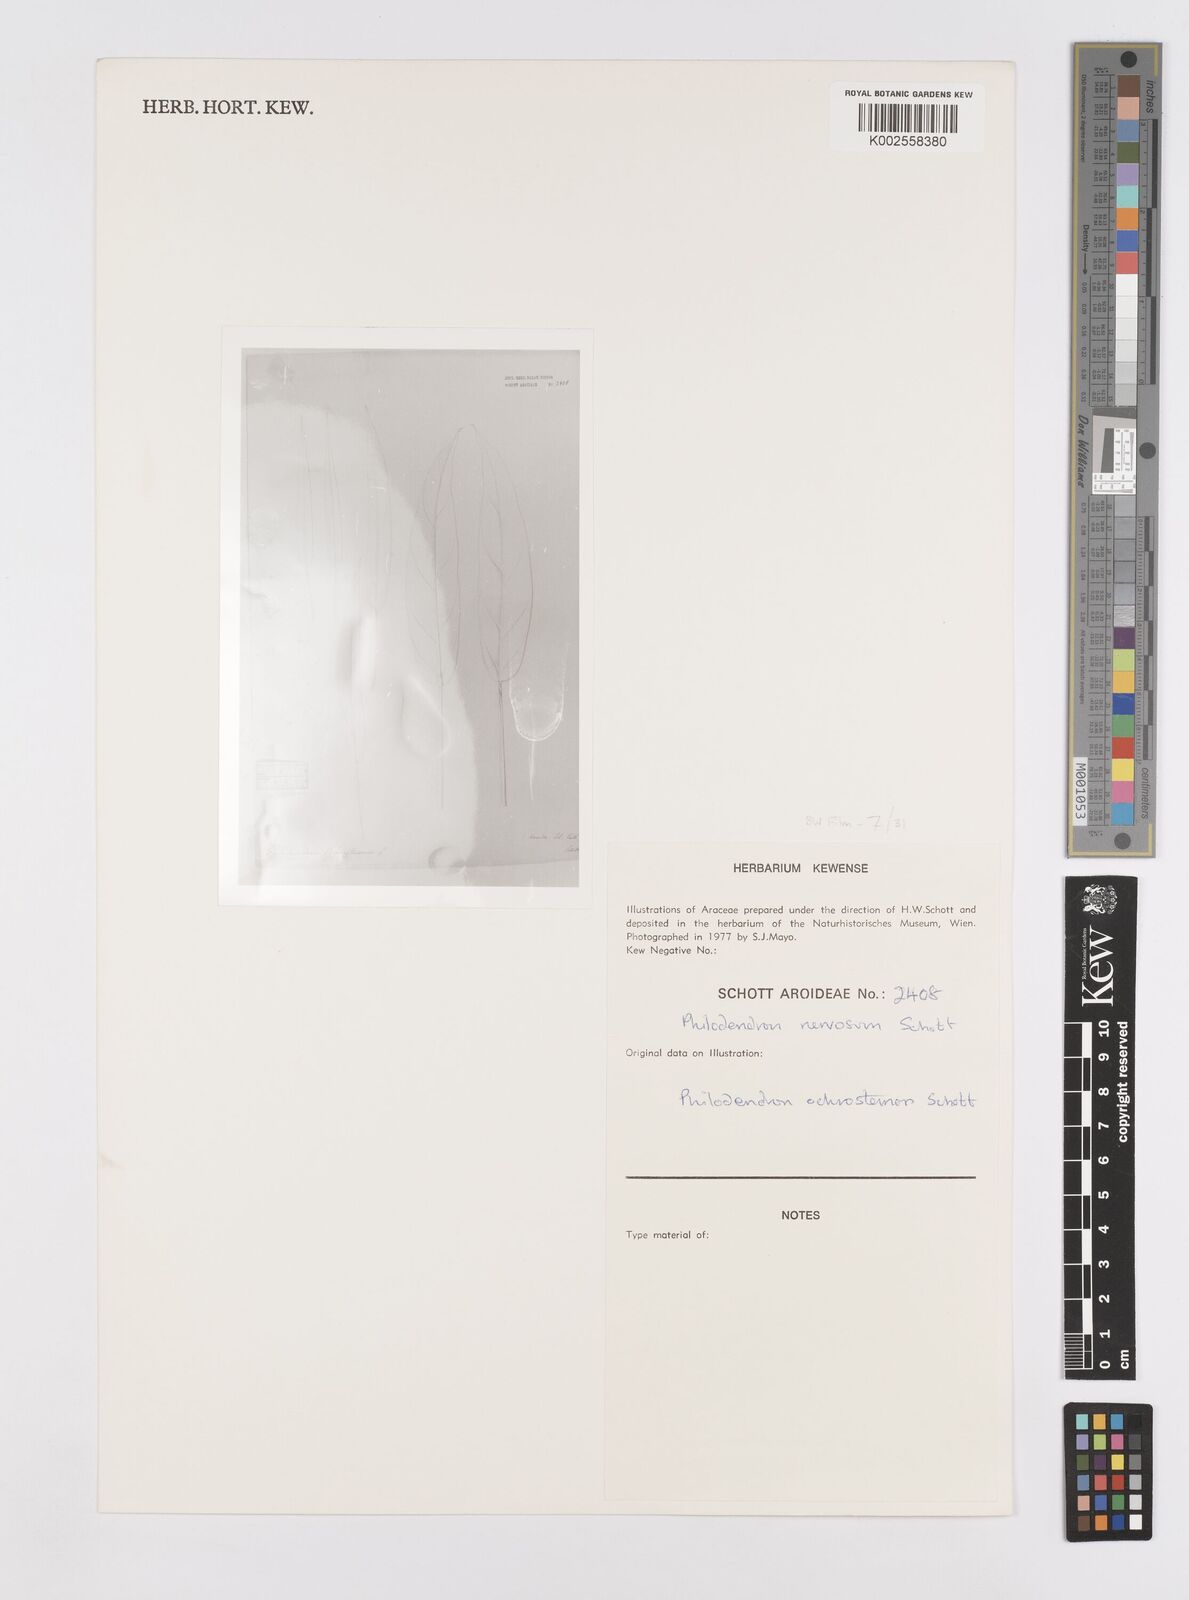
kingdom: Plantae
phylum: Tracheophyta
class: Liliopsida
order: Alismatales
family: Araceae
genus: Philodendron
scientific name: Philodendron ochrostemon
